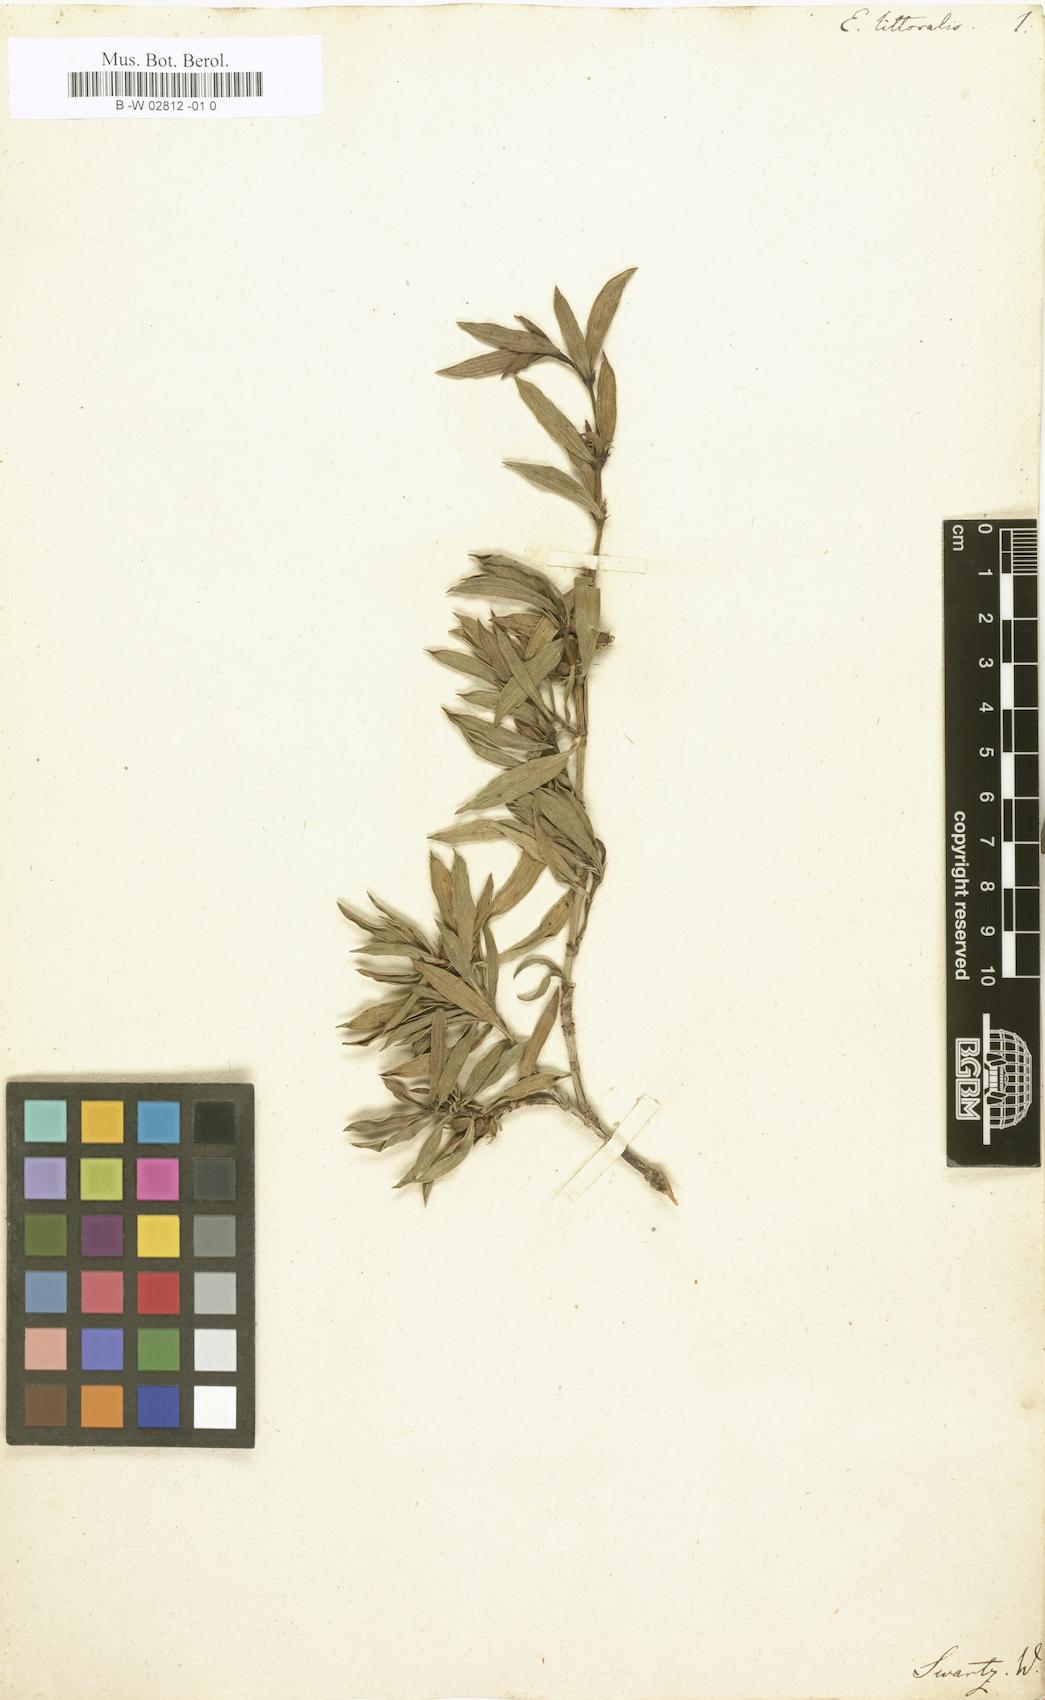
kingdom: Plantae
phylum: Tracheophyta
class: Magnoliopsida
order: Gentianales
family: Rubiaceae
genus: Ernodea
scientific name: Ernodea littoralis
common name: Beach creeper
